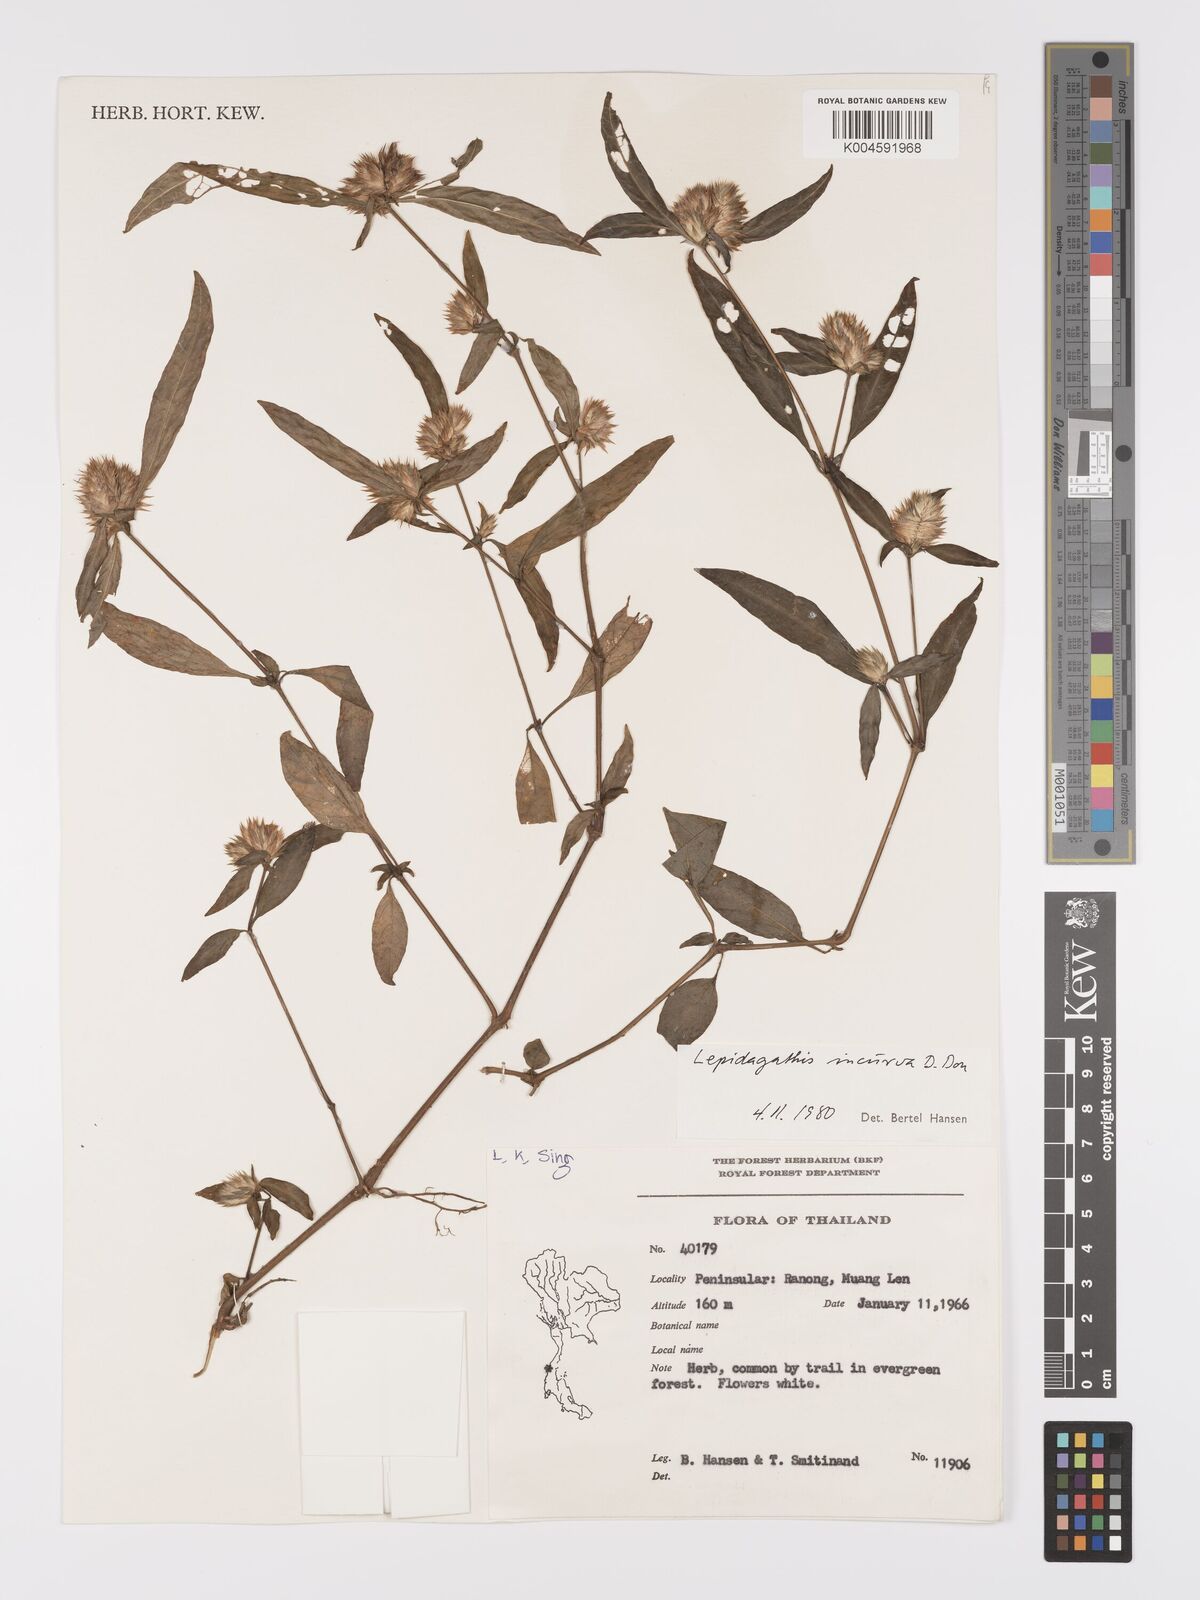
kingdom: Plantae
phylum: Tracheophyta
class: Magnoliopsida
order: Lamiales
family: Acanthaceae
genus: Lepidagathis
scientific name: Lepidagathis incurva
